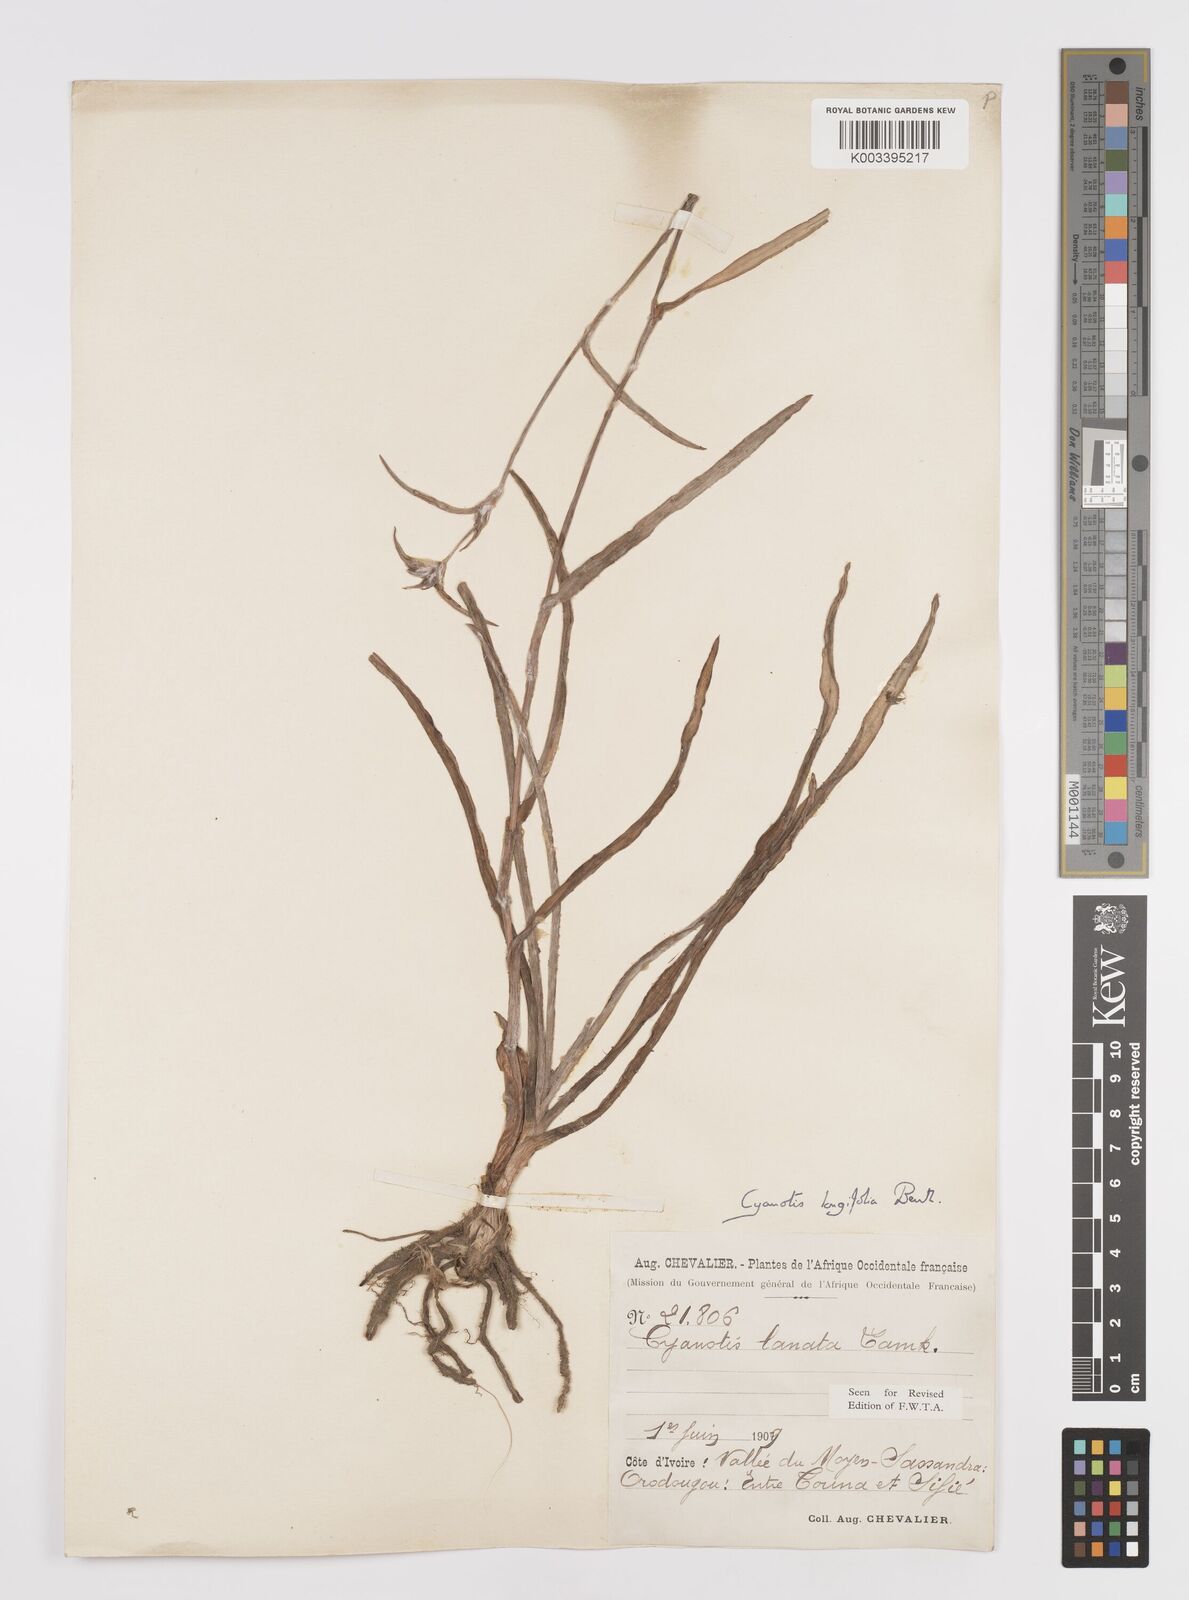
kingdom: Plantae
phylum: Tracheophyta
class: Liliopsida
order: Commelinales
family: Commelinaceae
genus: Cyanotis
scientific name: Cyanotis
